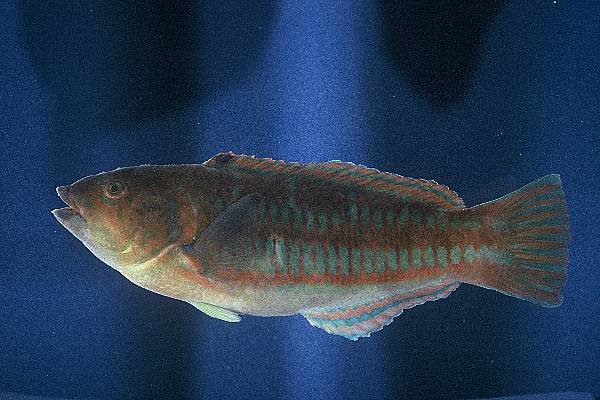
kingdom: Animalia
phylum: Chordata
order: Perciformes
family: Labridae
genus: Thalassoma
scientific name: Thalassoma trilobatum
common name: Christmas wrasse
